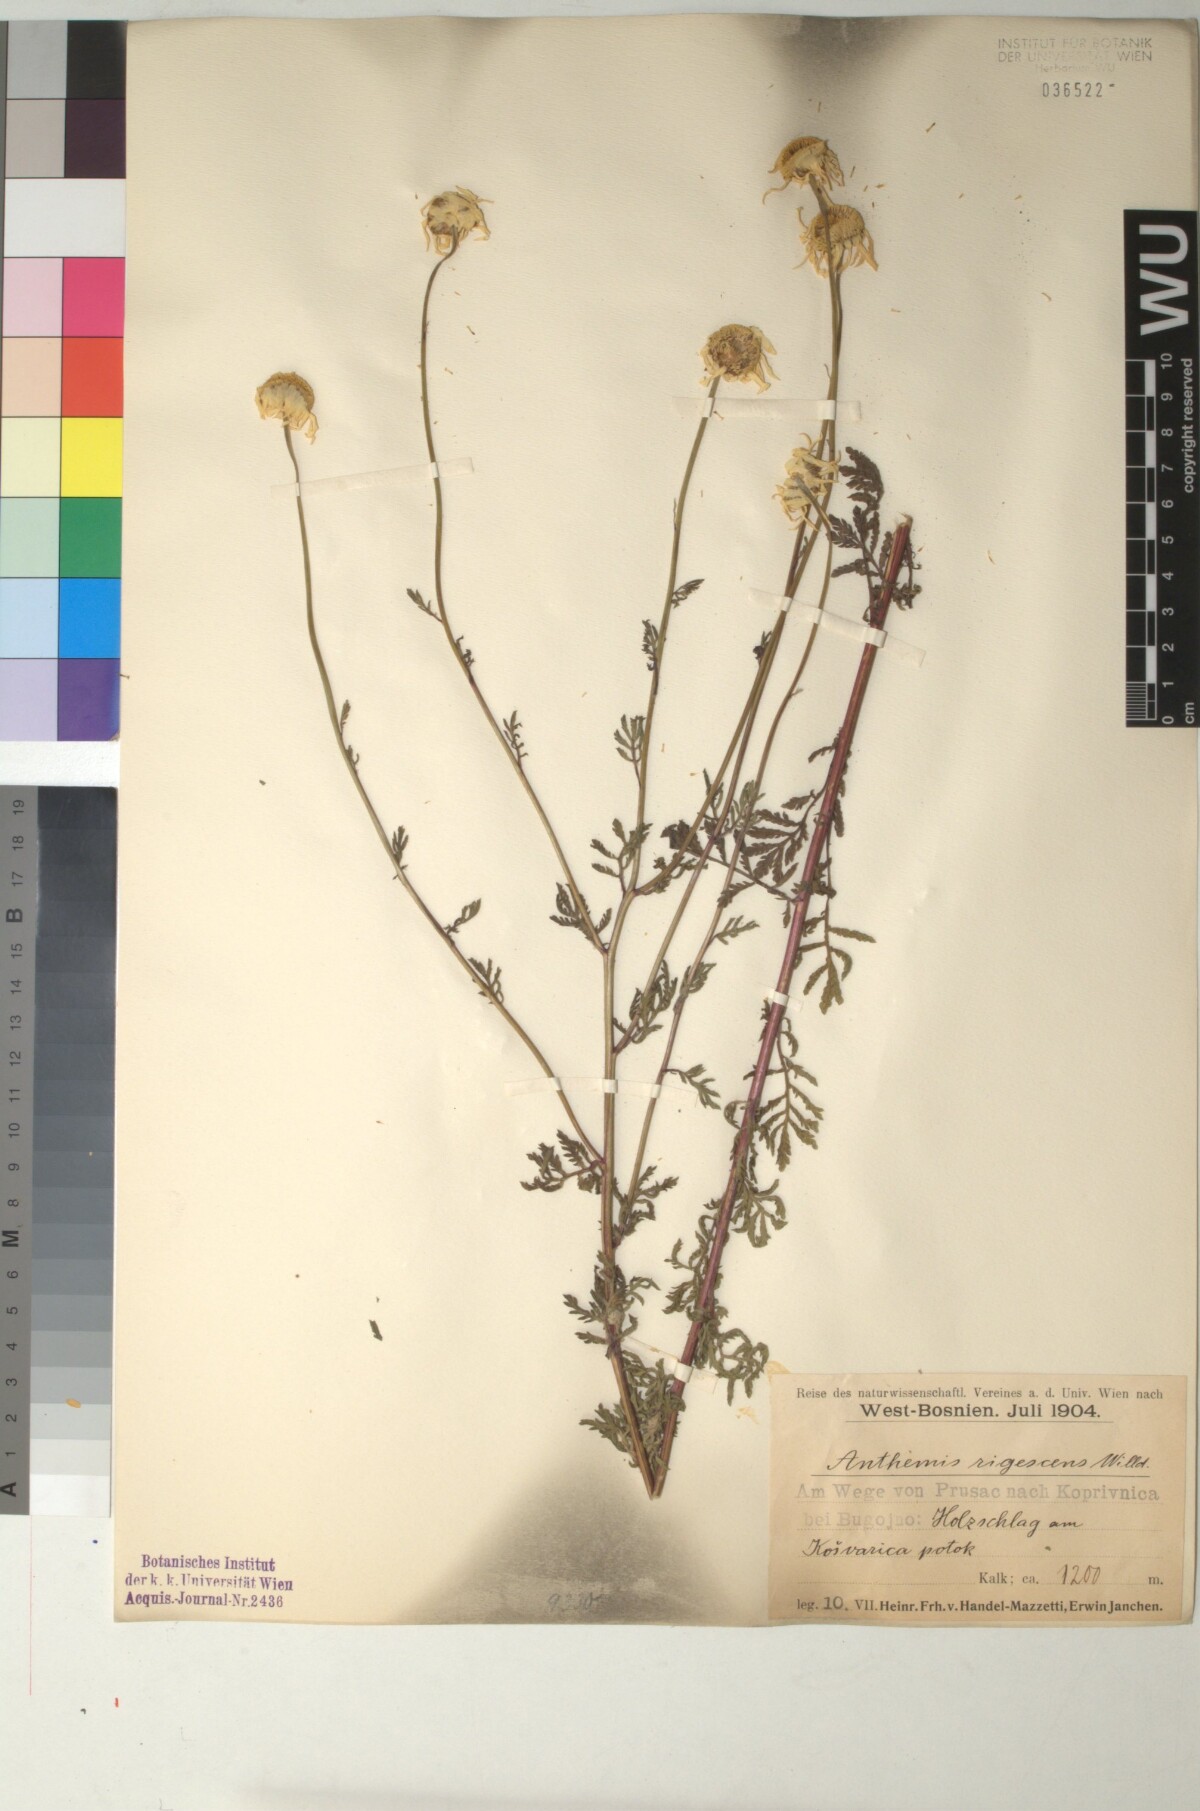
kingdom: Plantae
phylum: Tracheophyta
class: Magnoliopsida
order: Asterales
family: Asteraceae
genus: Cota
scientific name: Cota triumfetti
